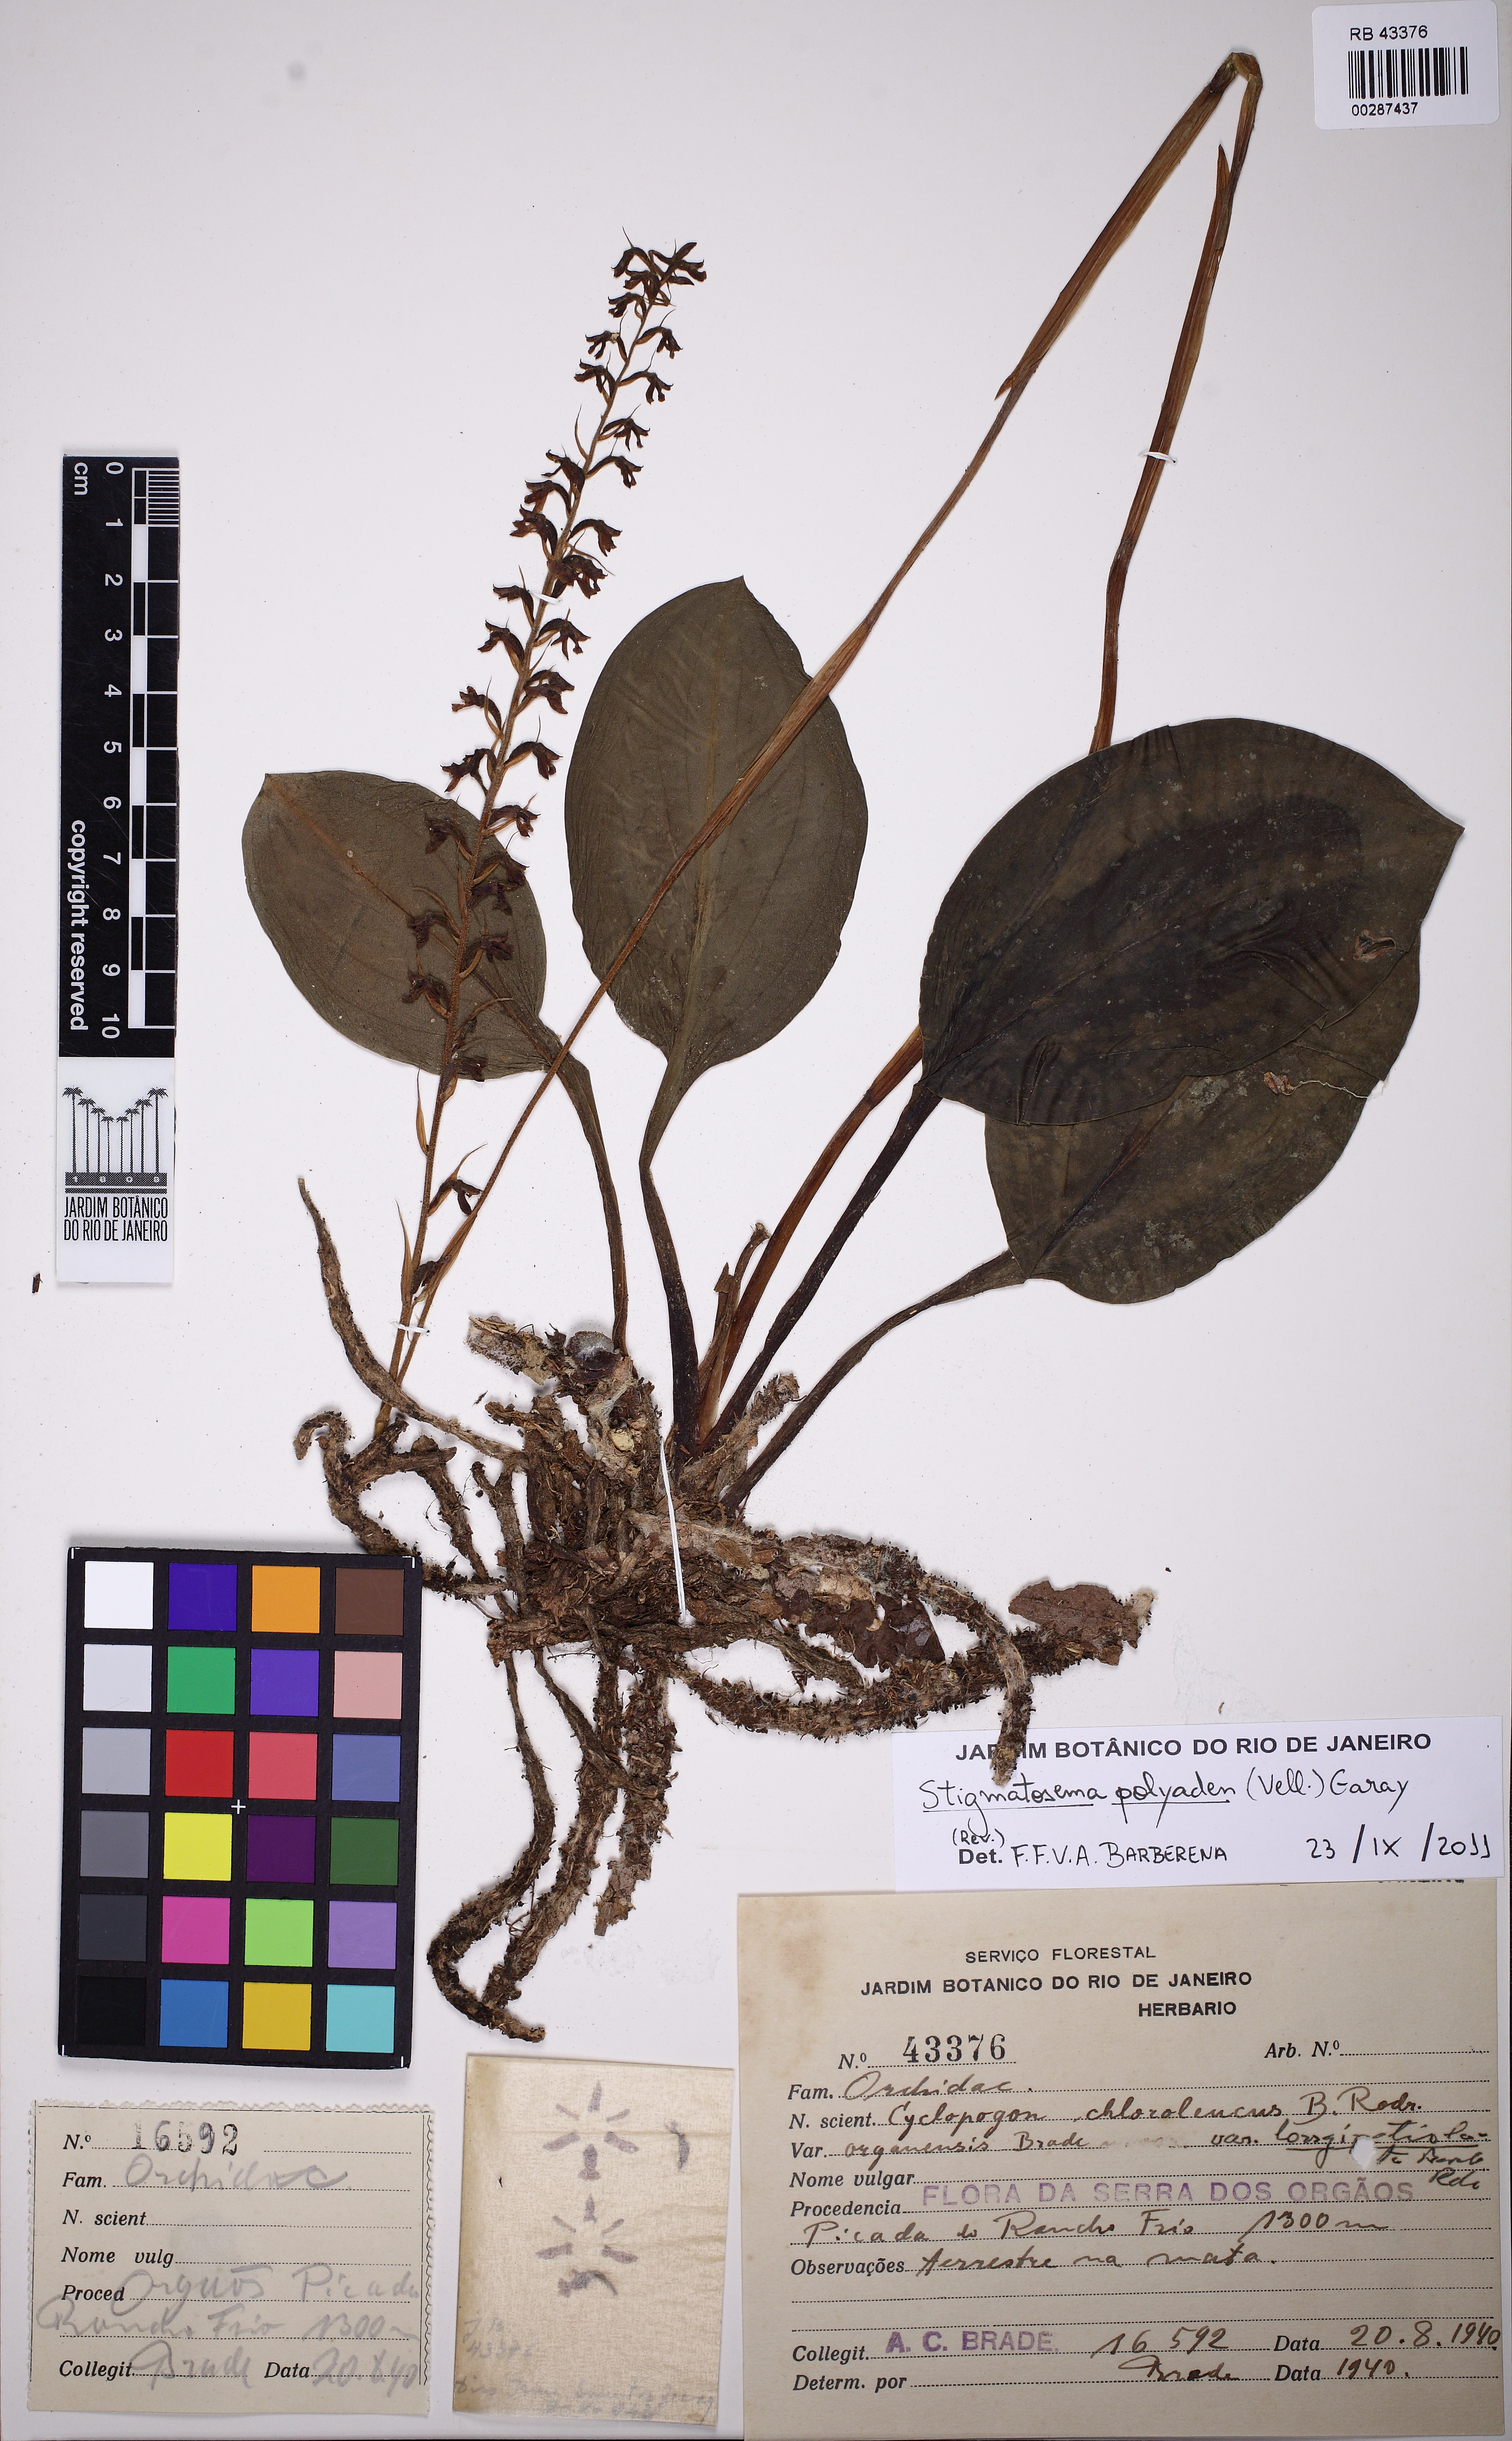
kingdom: Plantae
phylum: Tracheophyta
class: Liliopsida
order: Asparagales
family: Orchidaceae
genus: Serapias
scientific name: Serapias polyaden
